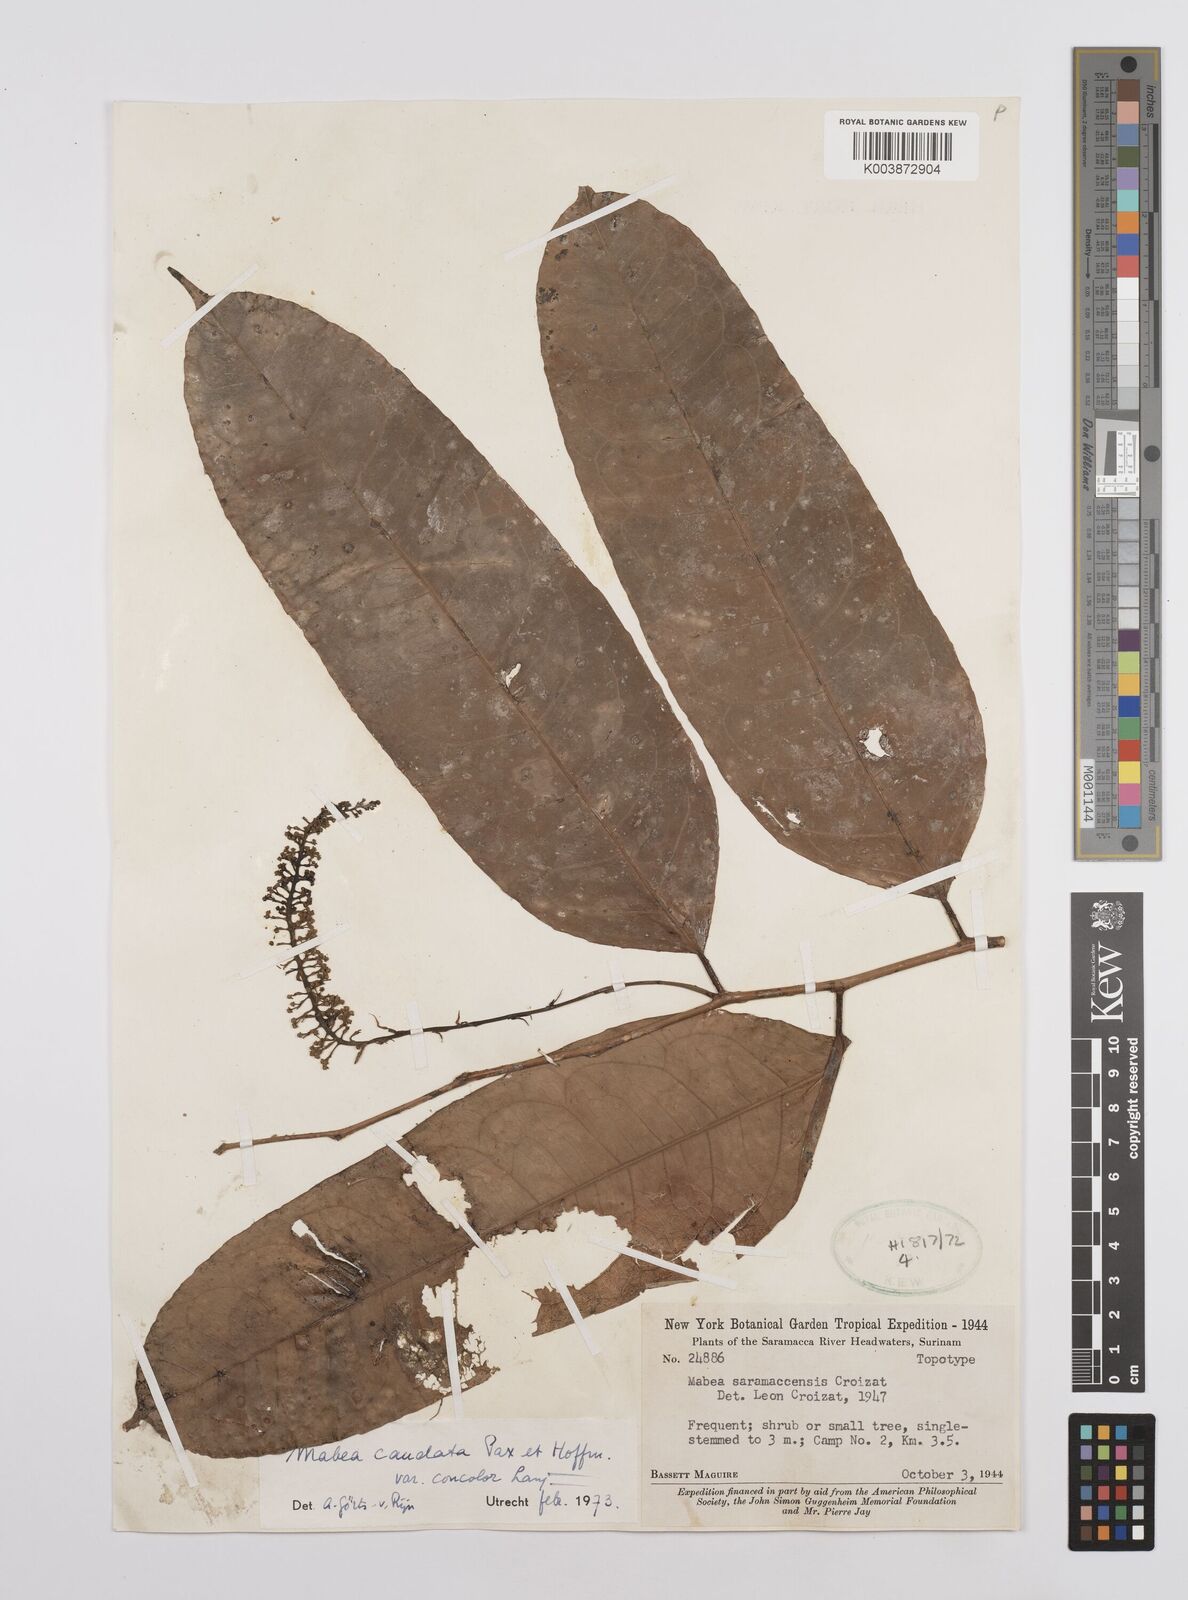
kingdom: Plantae
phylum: Tracheophyta
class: Magnoliopsida
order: Malpighiales
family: Euphorbiaceae
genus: Mabea
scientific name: Mabea piriri
